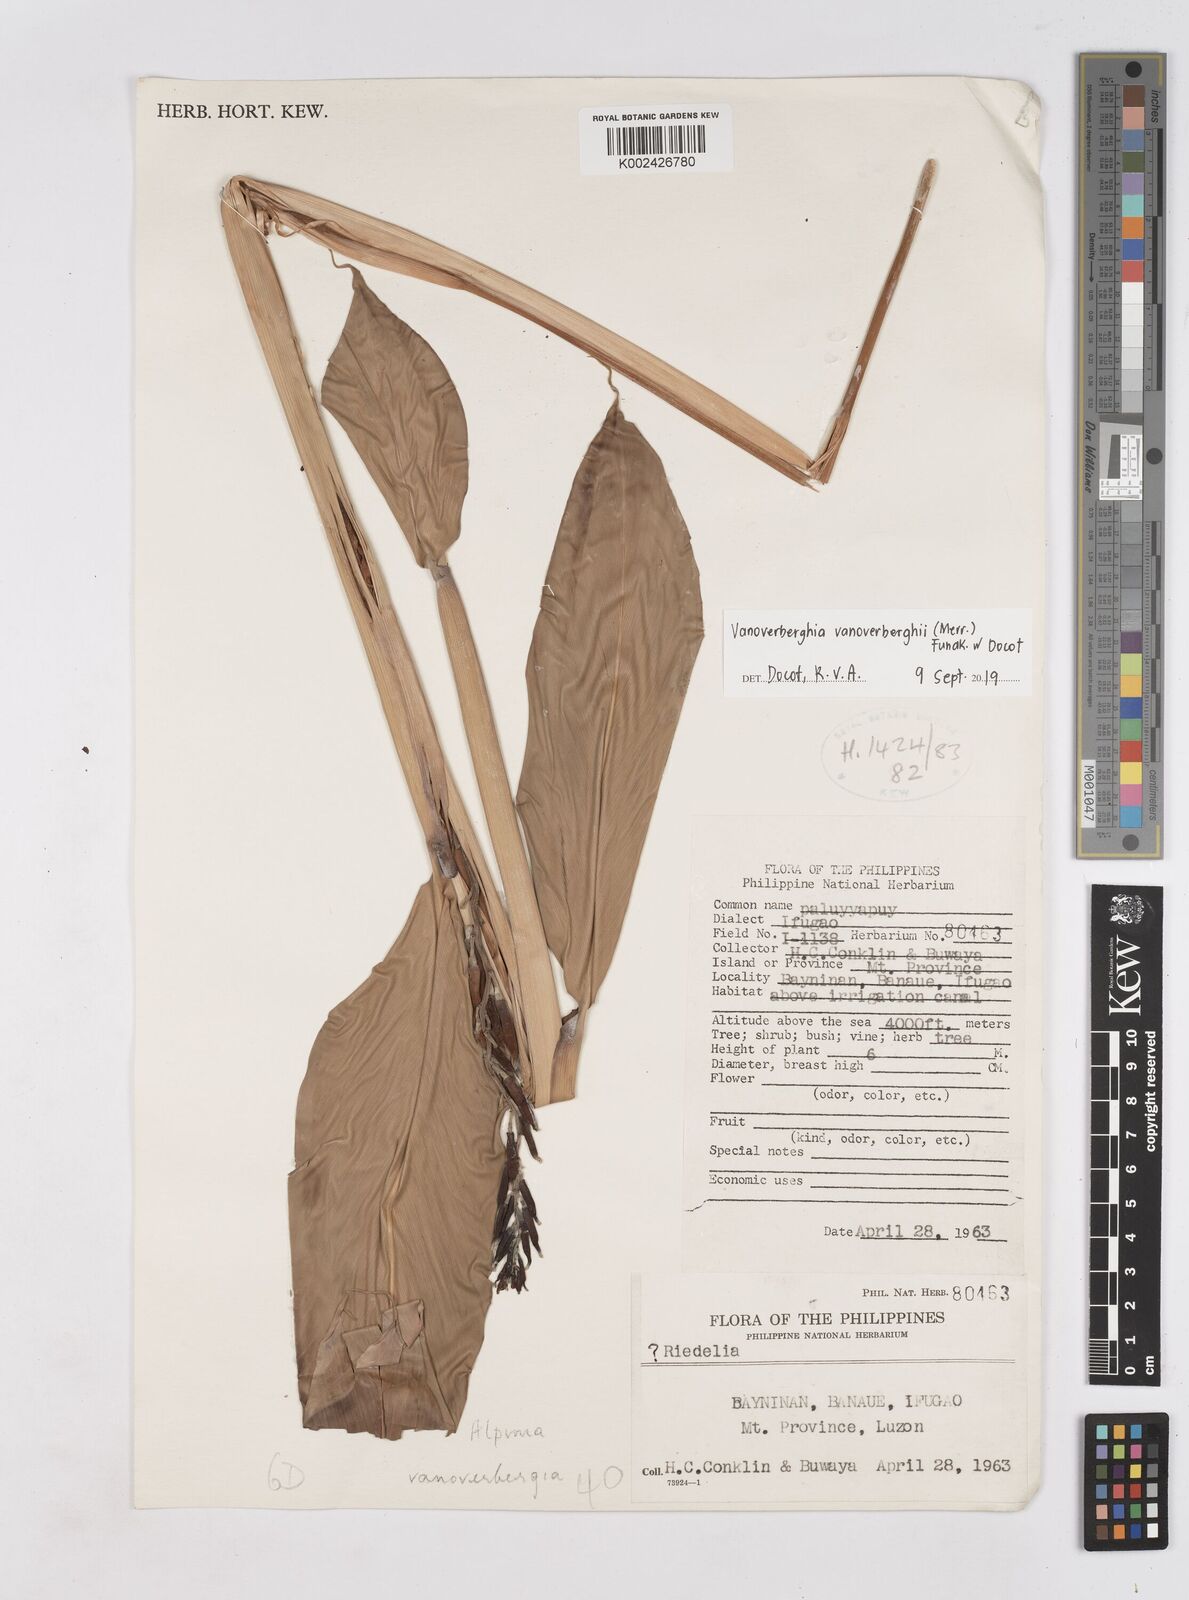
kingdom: Plantae
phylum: Tracheophyta
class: Liliopsida
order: Zingiberales
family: Zingiberaceae
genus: Vanoverberghia
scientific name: Vanoverberghia vanoverberghii
